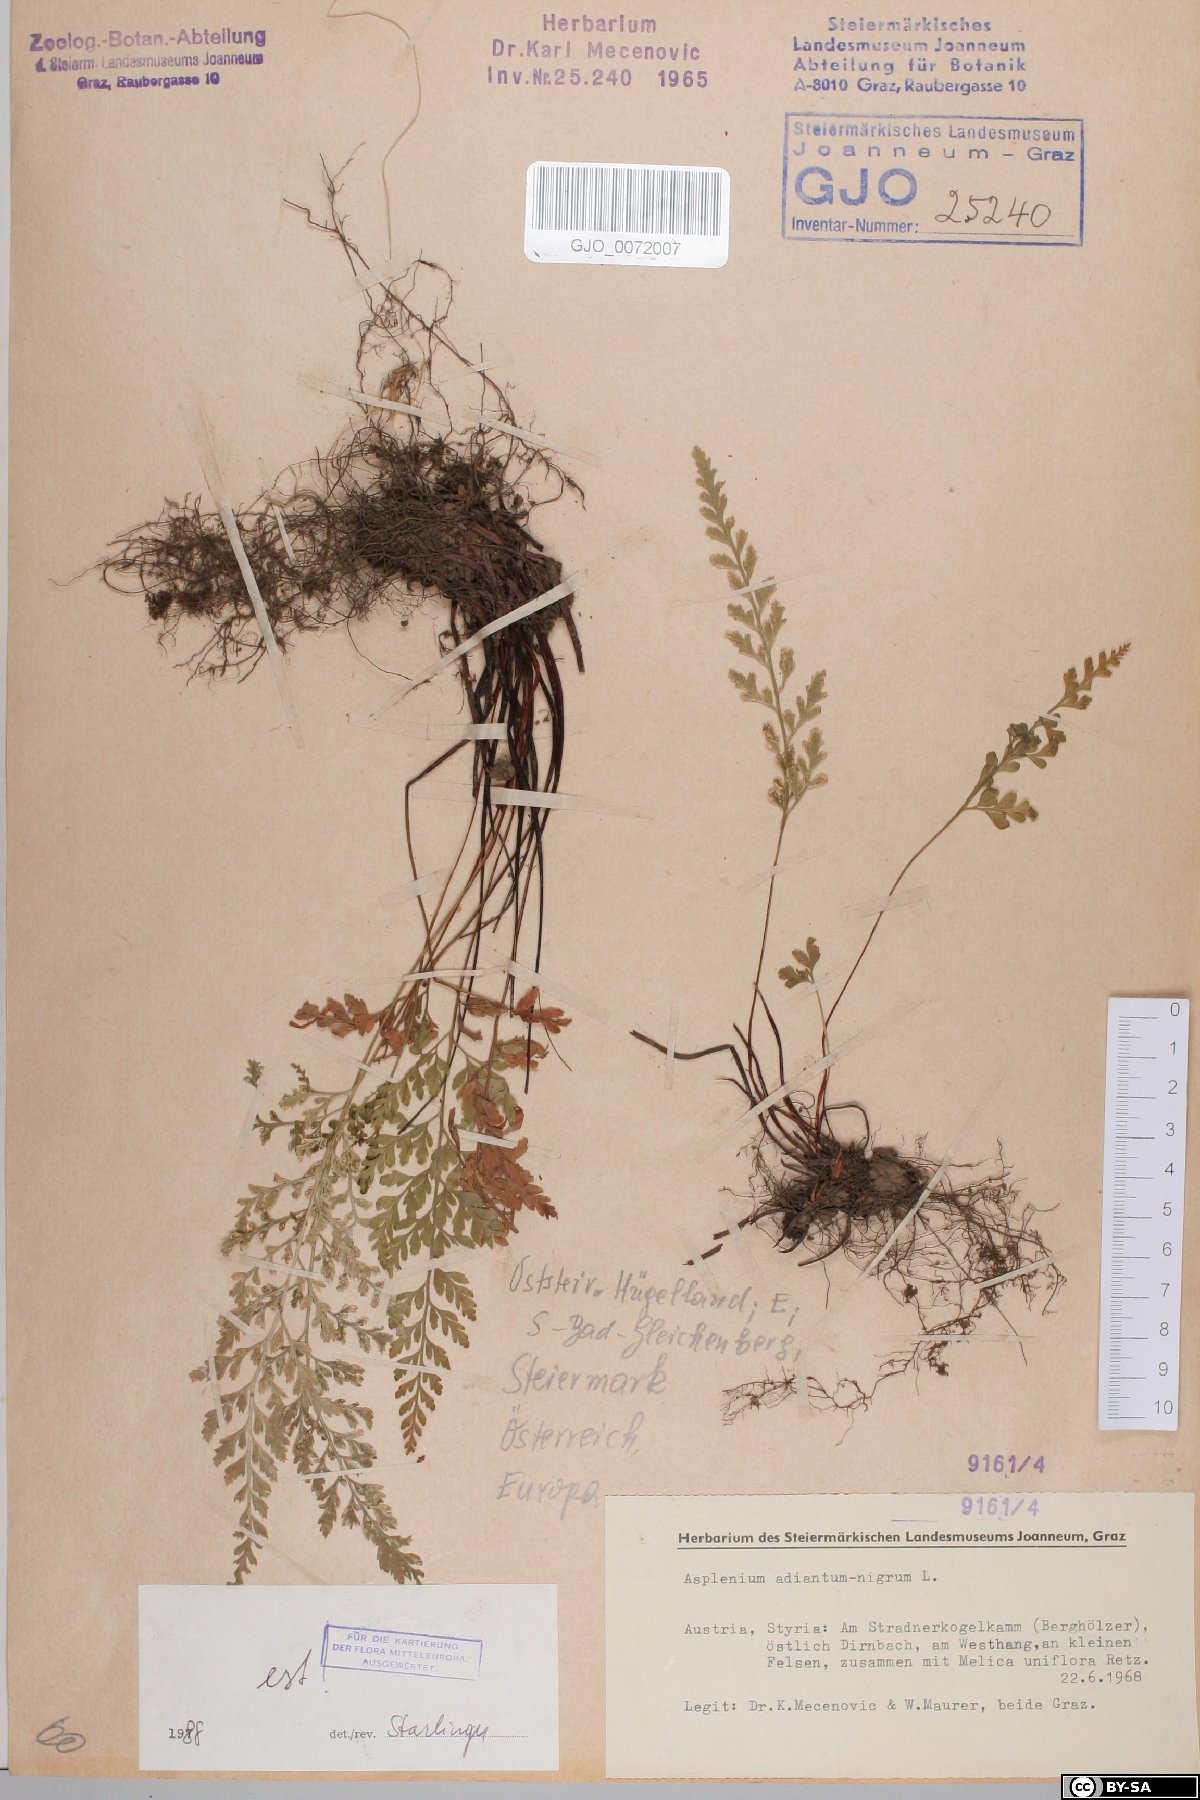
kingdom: Plantae
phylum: Tracheophyta
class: Polypodiopsida
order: Polypodiales
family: Aspleniaceae
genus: Asplenium
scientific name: Asplenium adiantum-nigrum
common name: Black spleenwort
